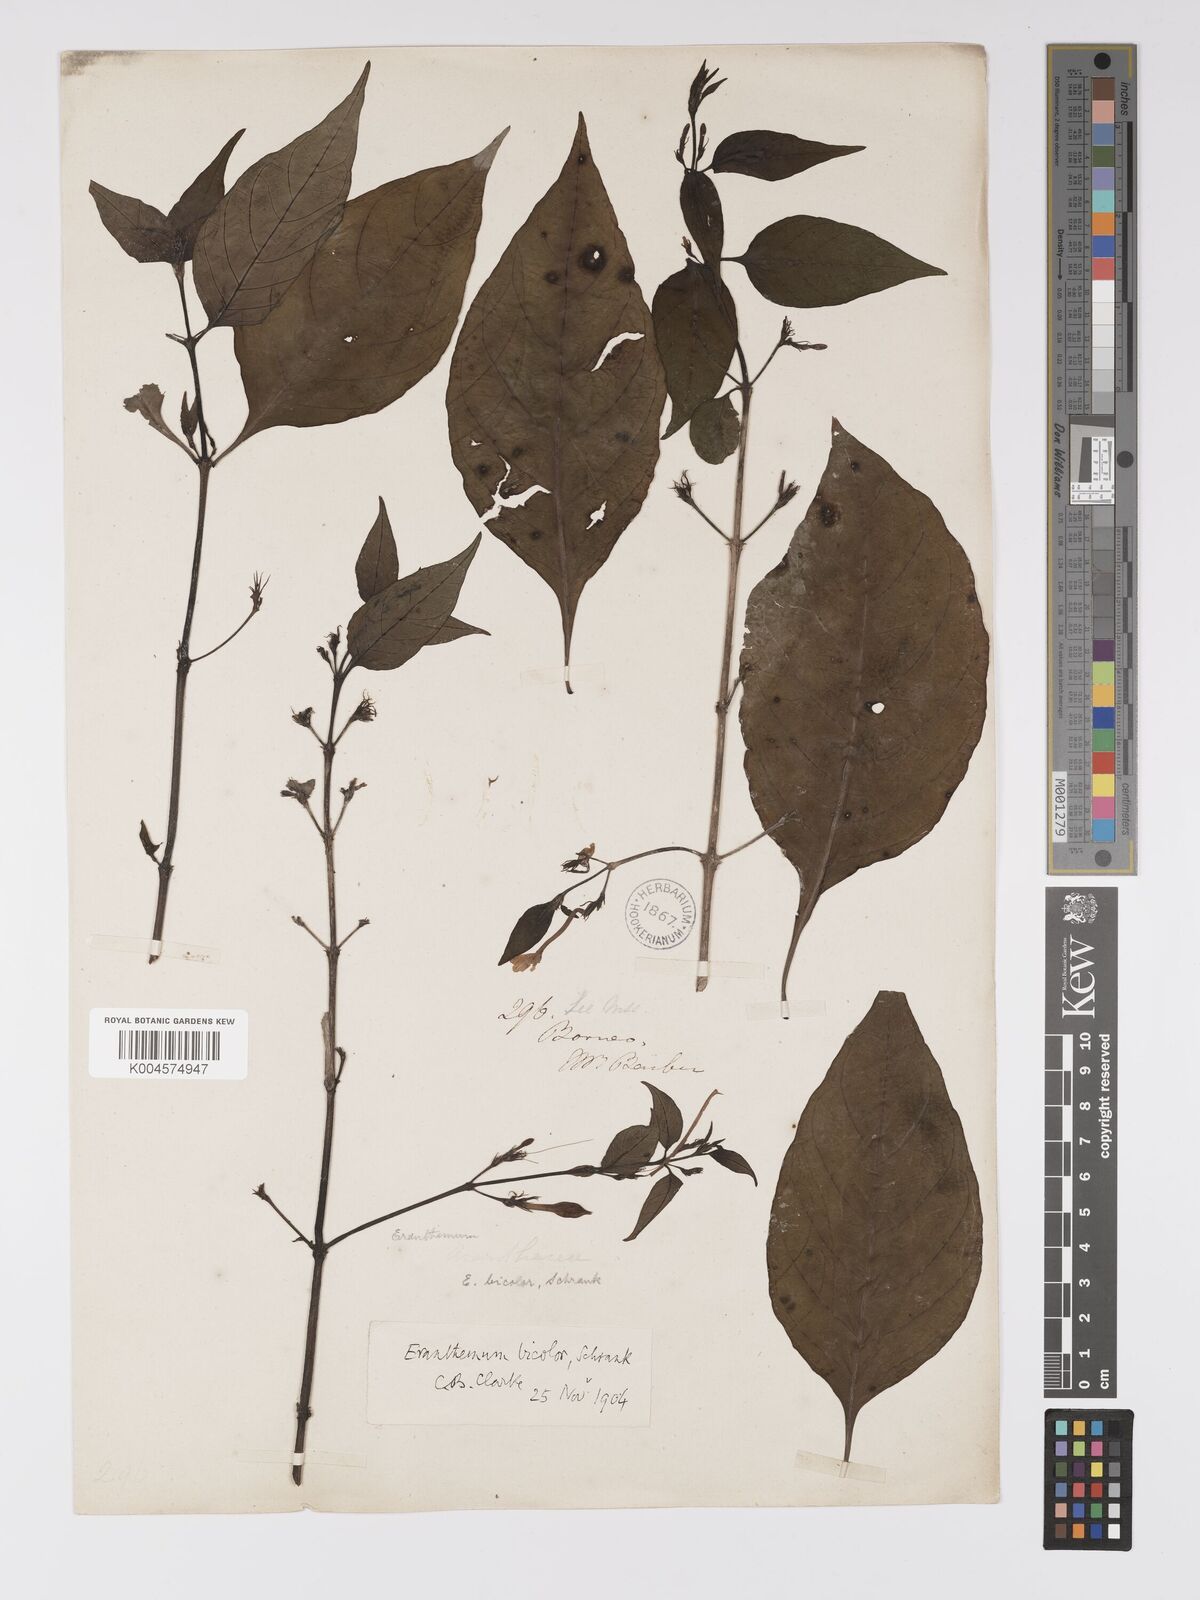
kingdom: Plantae
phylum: Tracheophyta
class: Magnoliopsida
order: Lamiales
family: Acanthaceae
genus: Pseuderanthemum
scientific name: Pseuderanthemum
